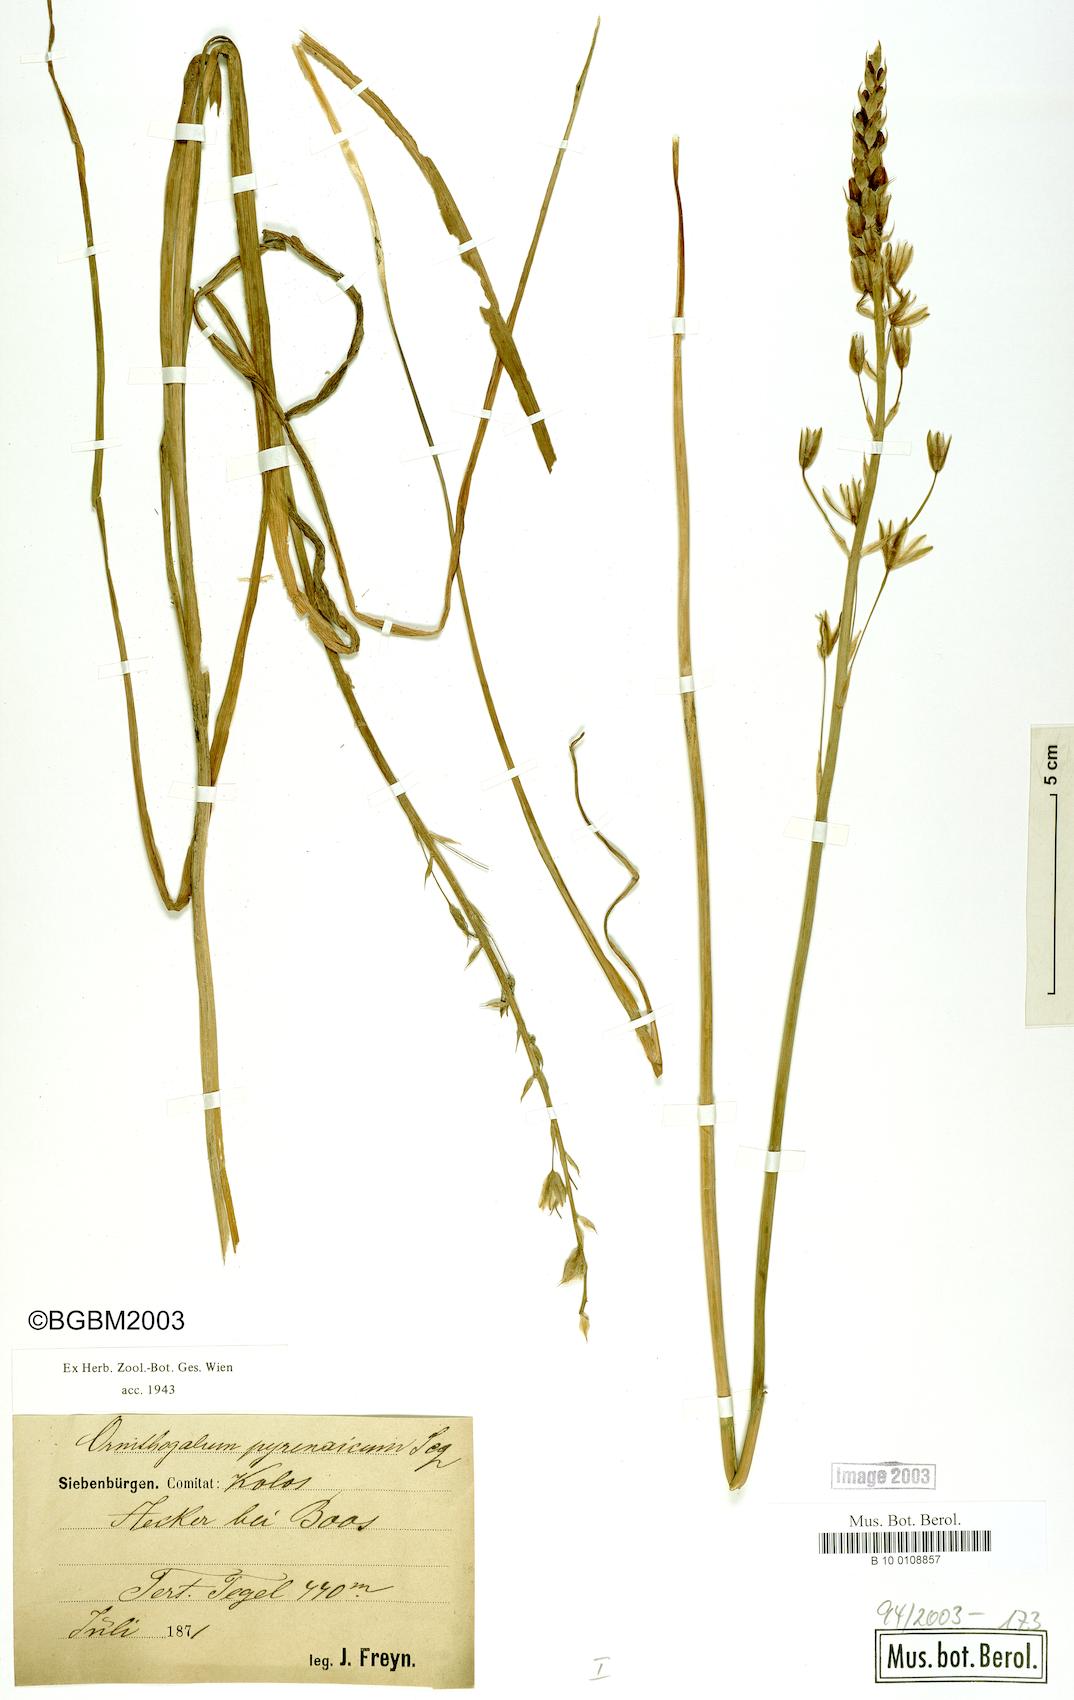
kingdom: Plantae
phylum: Tracheophyta
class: Liliopsida
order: Asparagales
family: Asparagaceae
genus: Ornithogalum
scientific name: Ornithogalum pyrenaicum
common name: Spiked star-of-bethlehem
